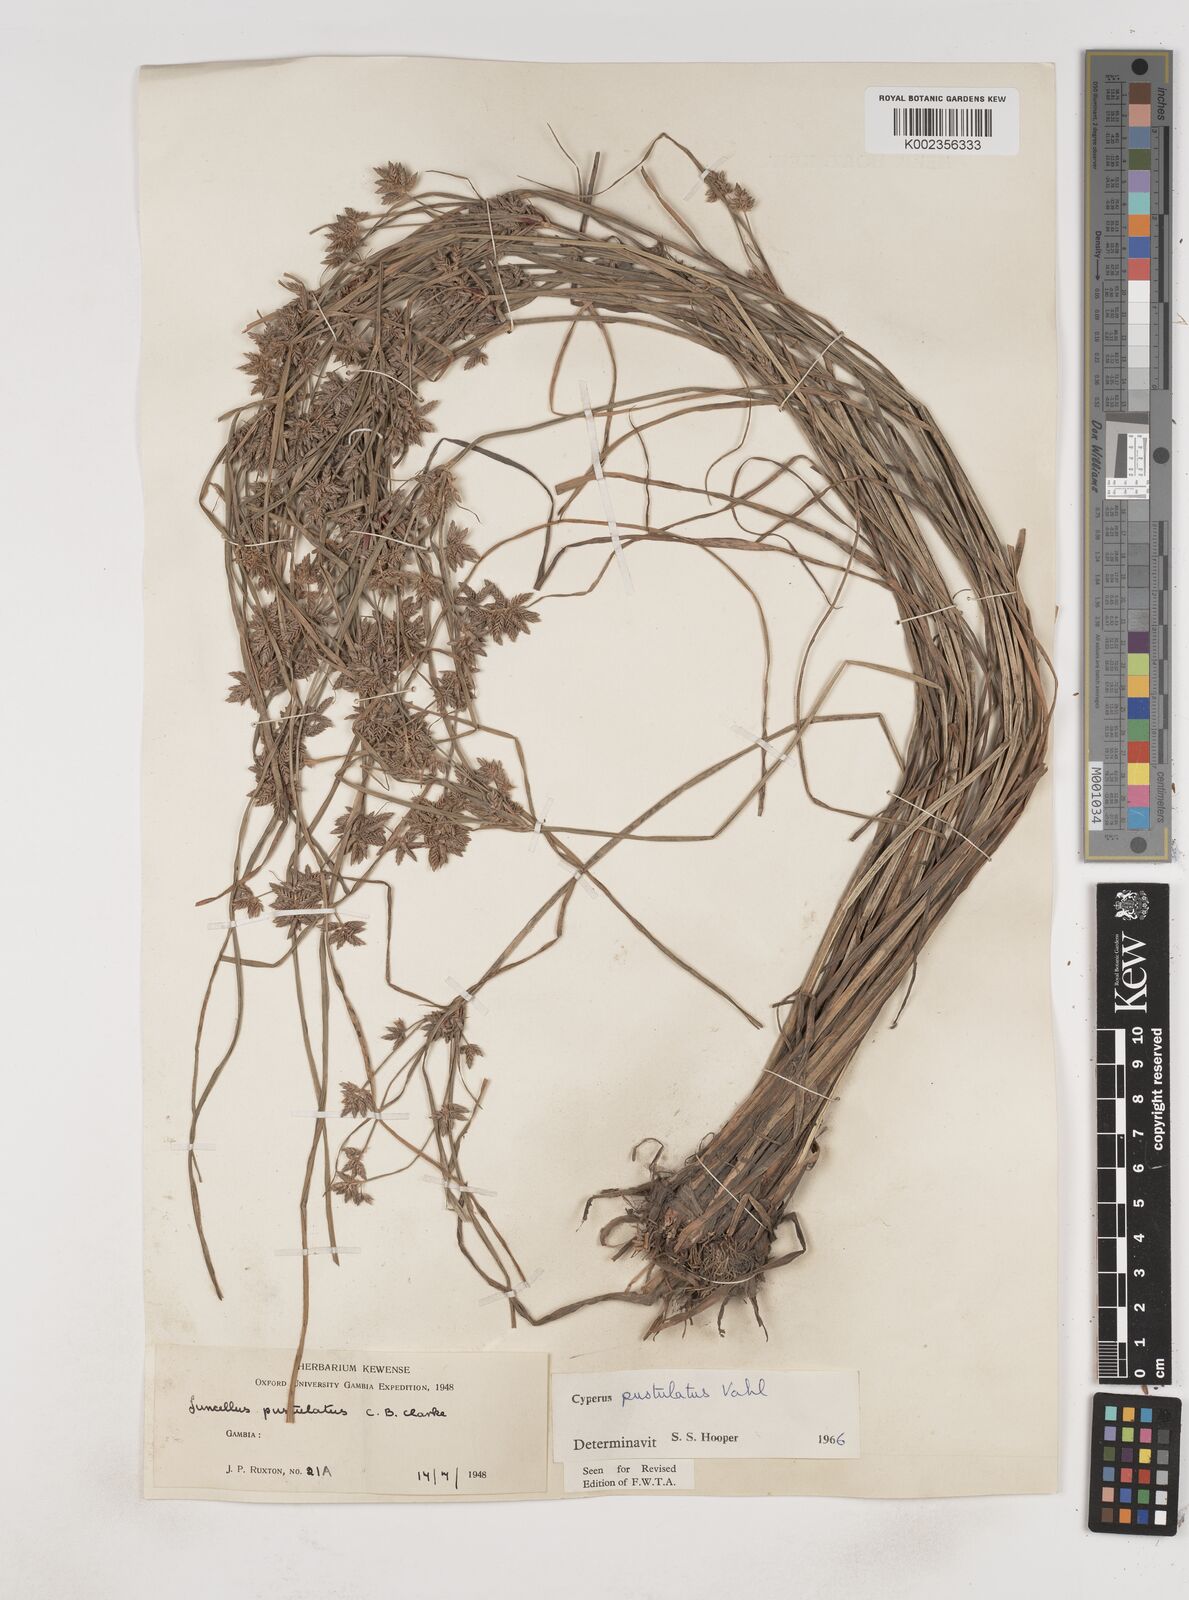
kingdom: Plantae
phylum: Tracheophyta
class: Liliopsida
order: Poales
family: Cyperaceae
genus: Cyperus
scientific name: Cyperus pustulatus
